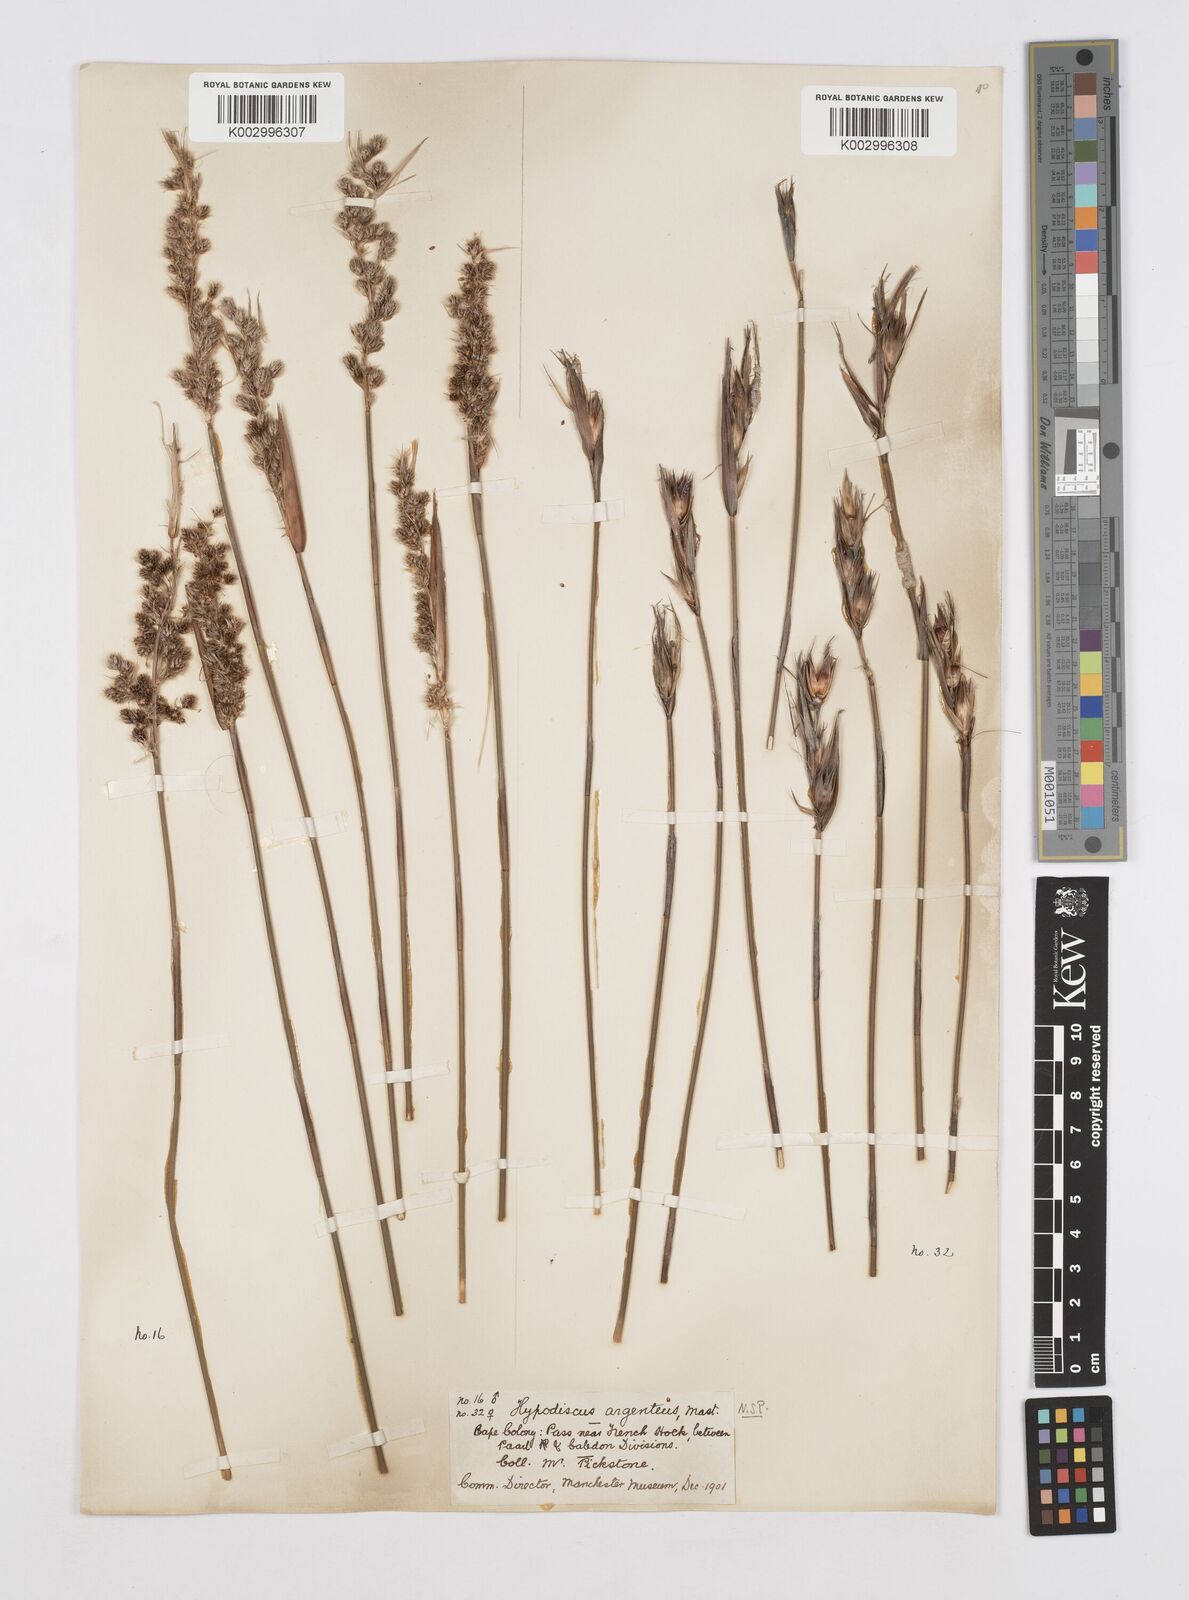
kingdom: Plantae
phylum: Tracheophyta
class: Liliopsida
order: Poales
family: Restionaceae
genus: Hypodiscus
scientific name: Hypodiscus argenteus
